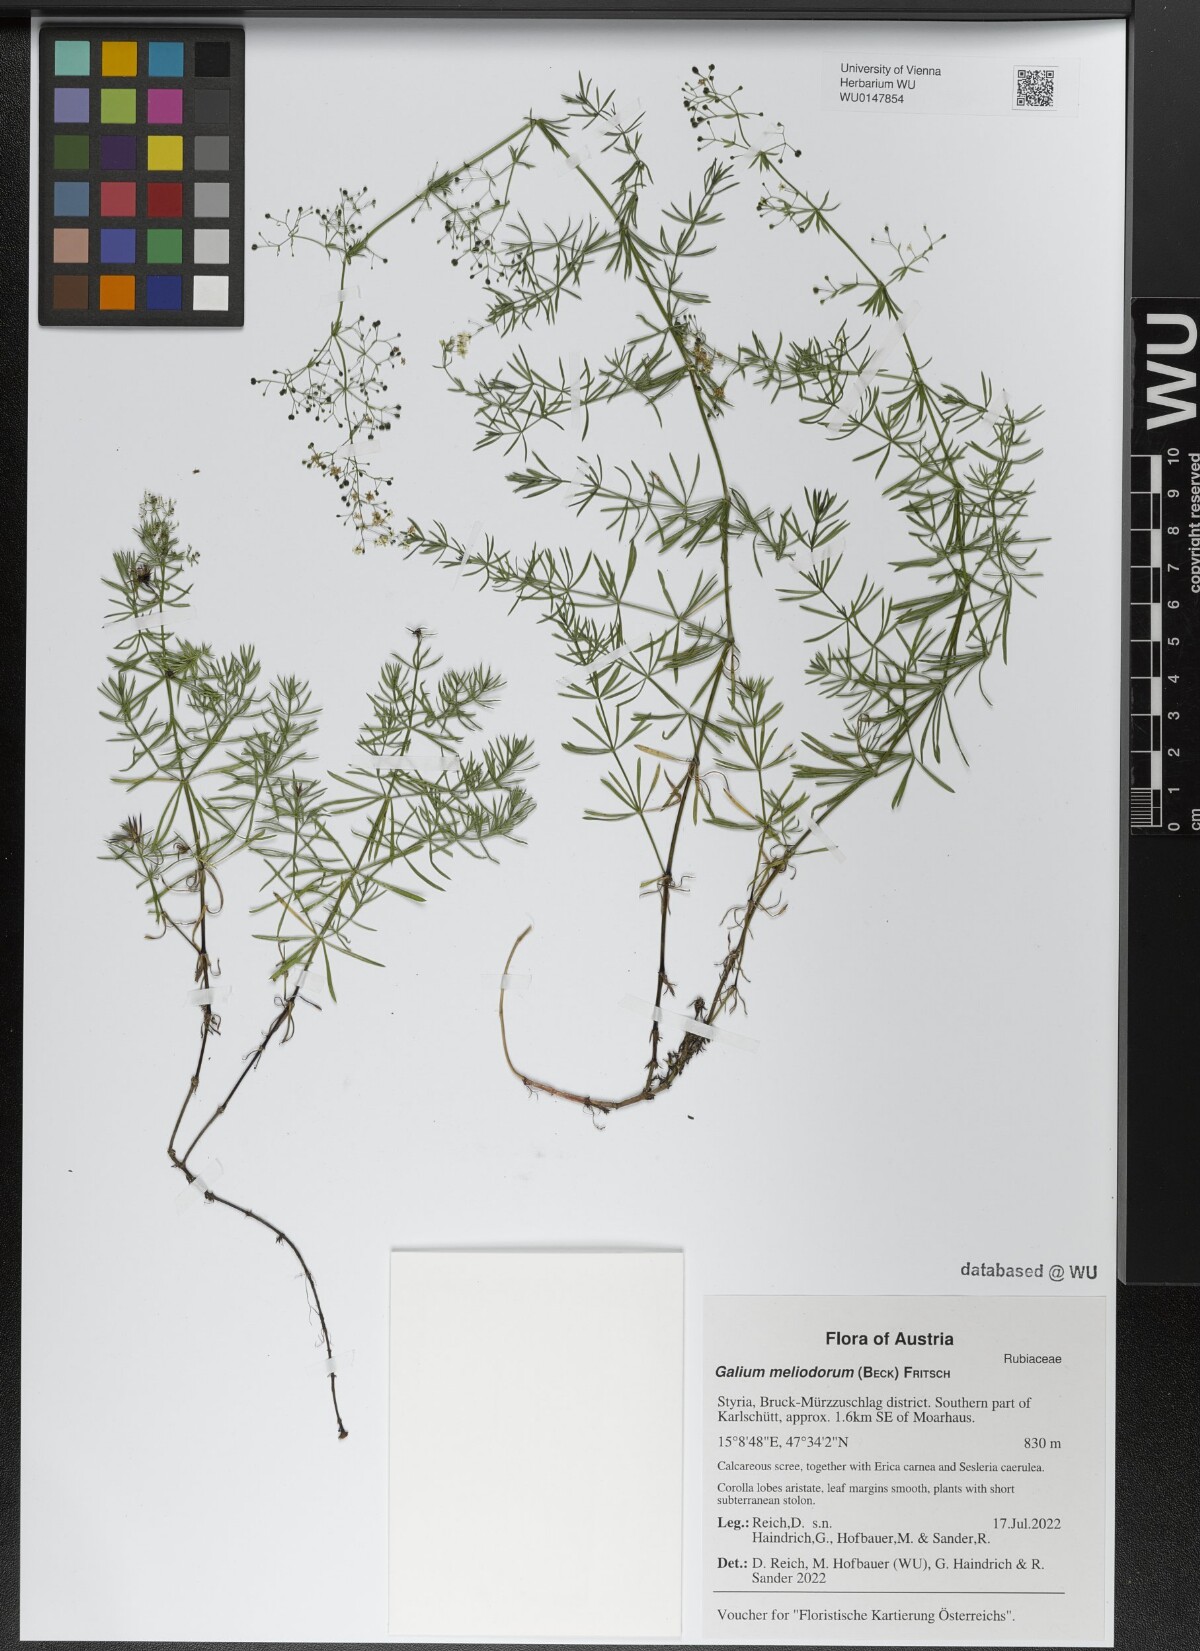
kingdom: Plantae
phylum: Tracheophyta
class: Magnoliopsida
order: Gentianales
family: Rubiaceae
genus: Galium
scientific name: Galium meliodorum
